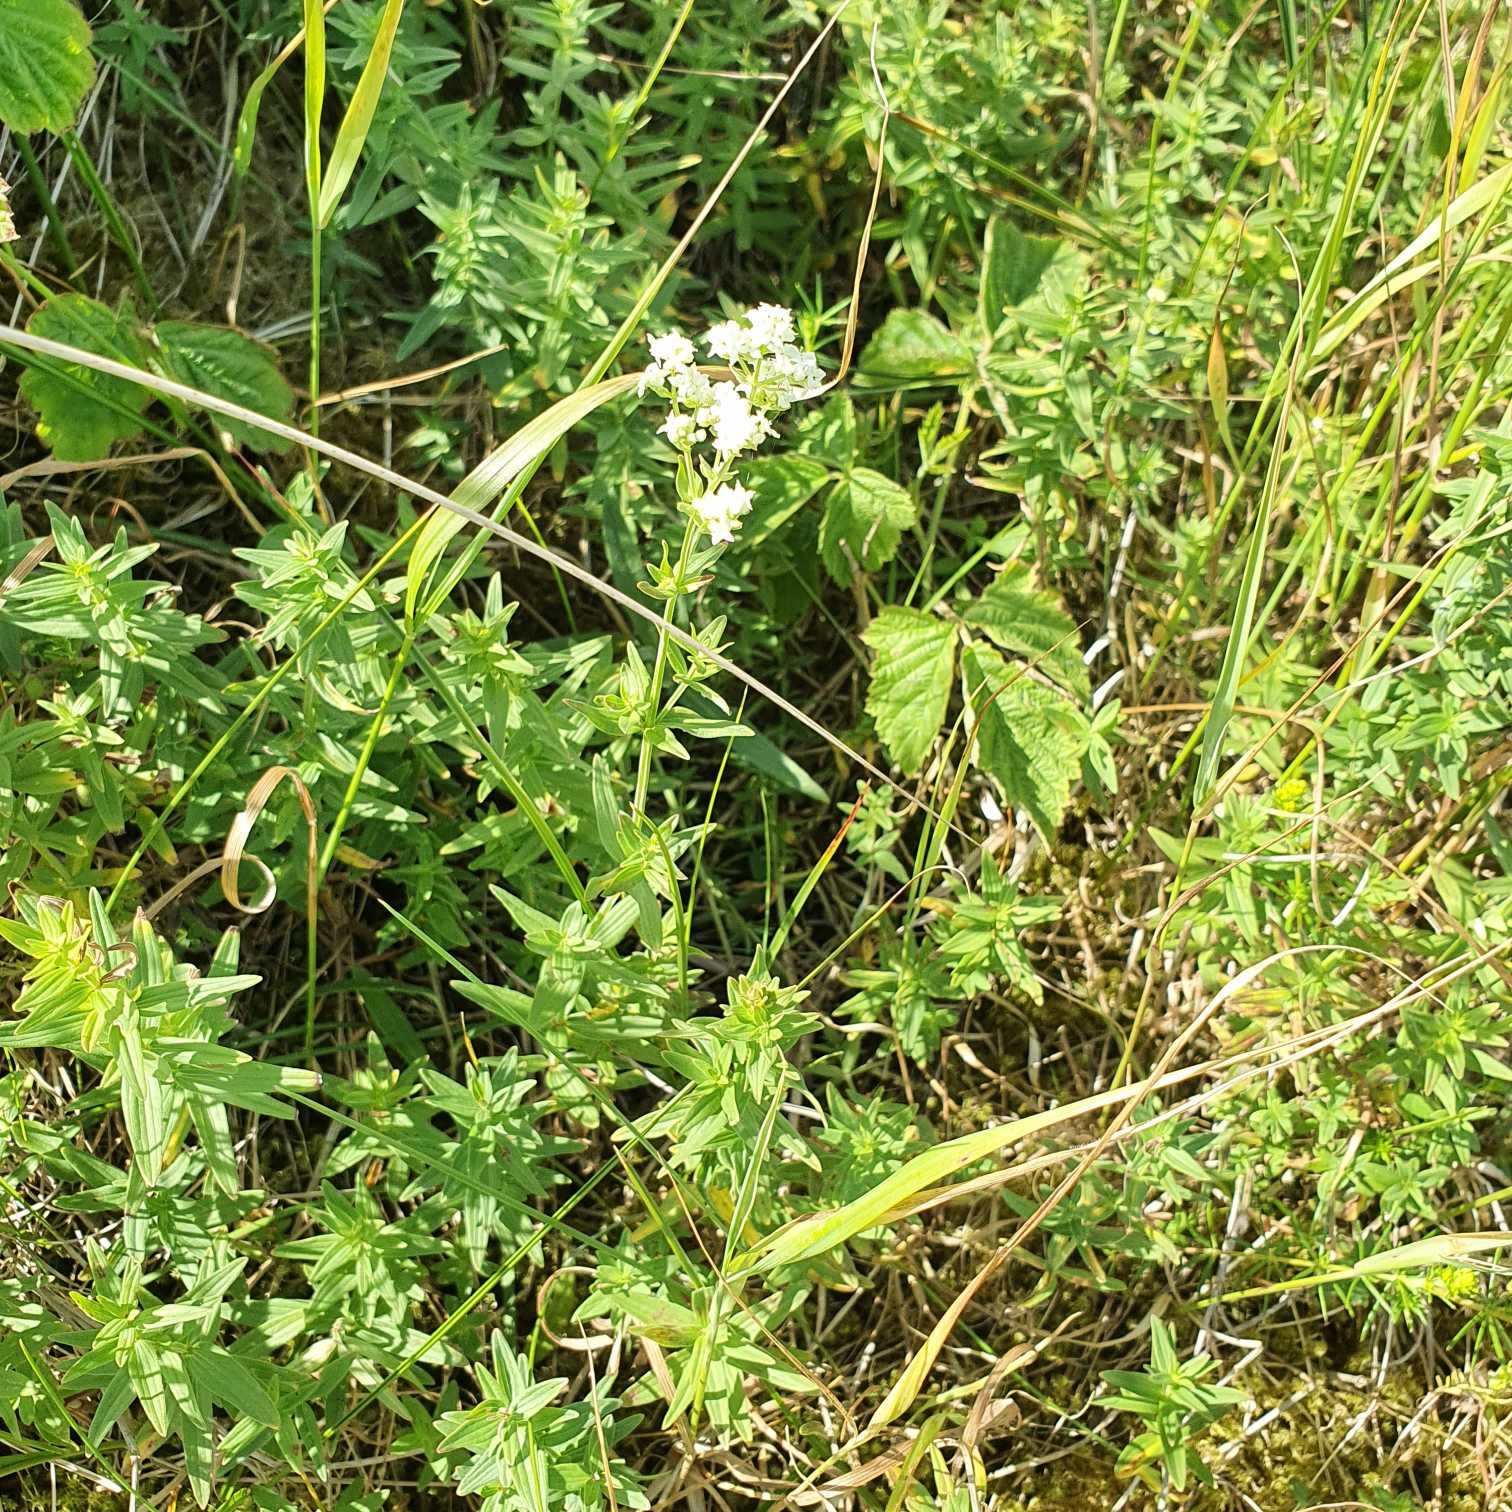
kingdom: Plantae
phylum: Tracheophyta
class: Magnoliopsida
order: Gentianales
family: Rubiaceae
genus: Galium
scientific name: Galium boreale
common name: Trenervet snerre
